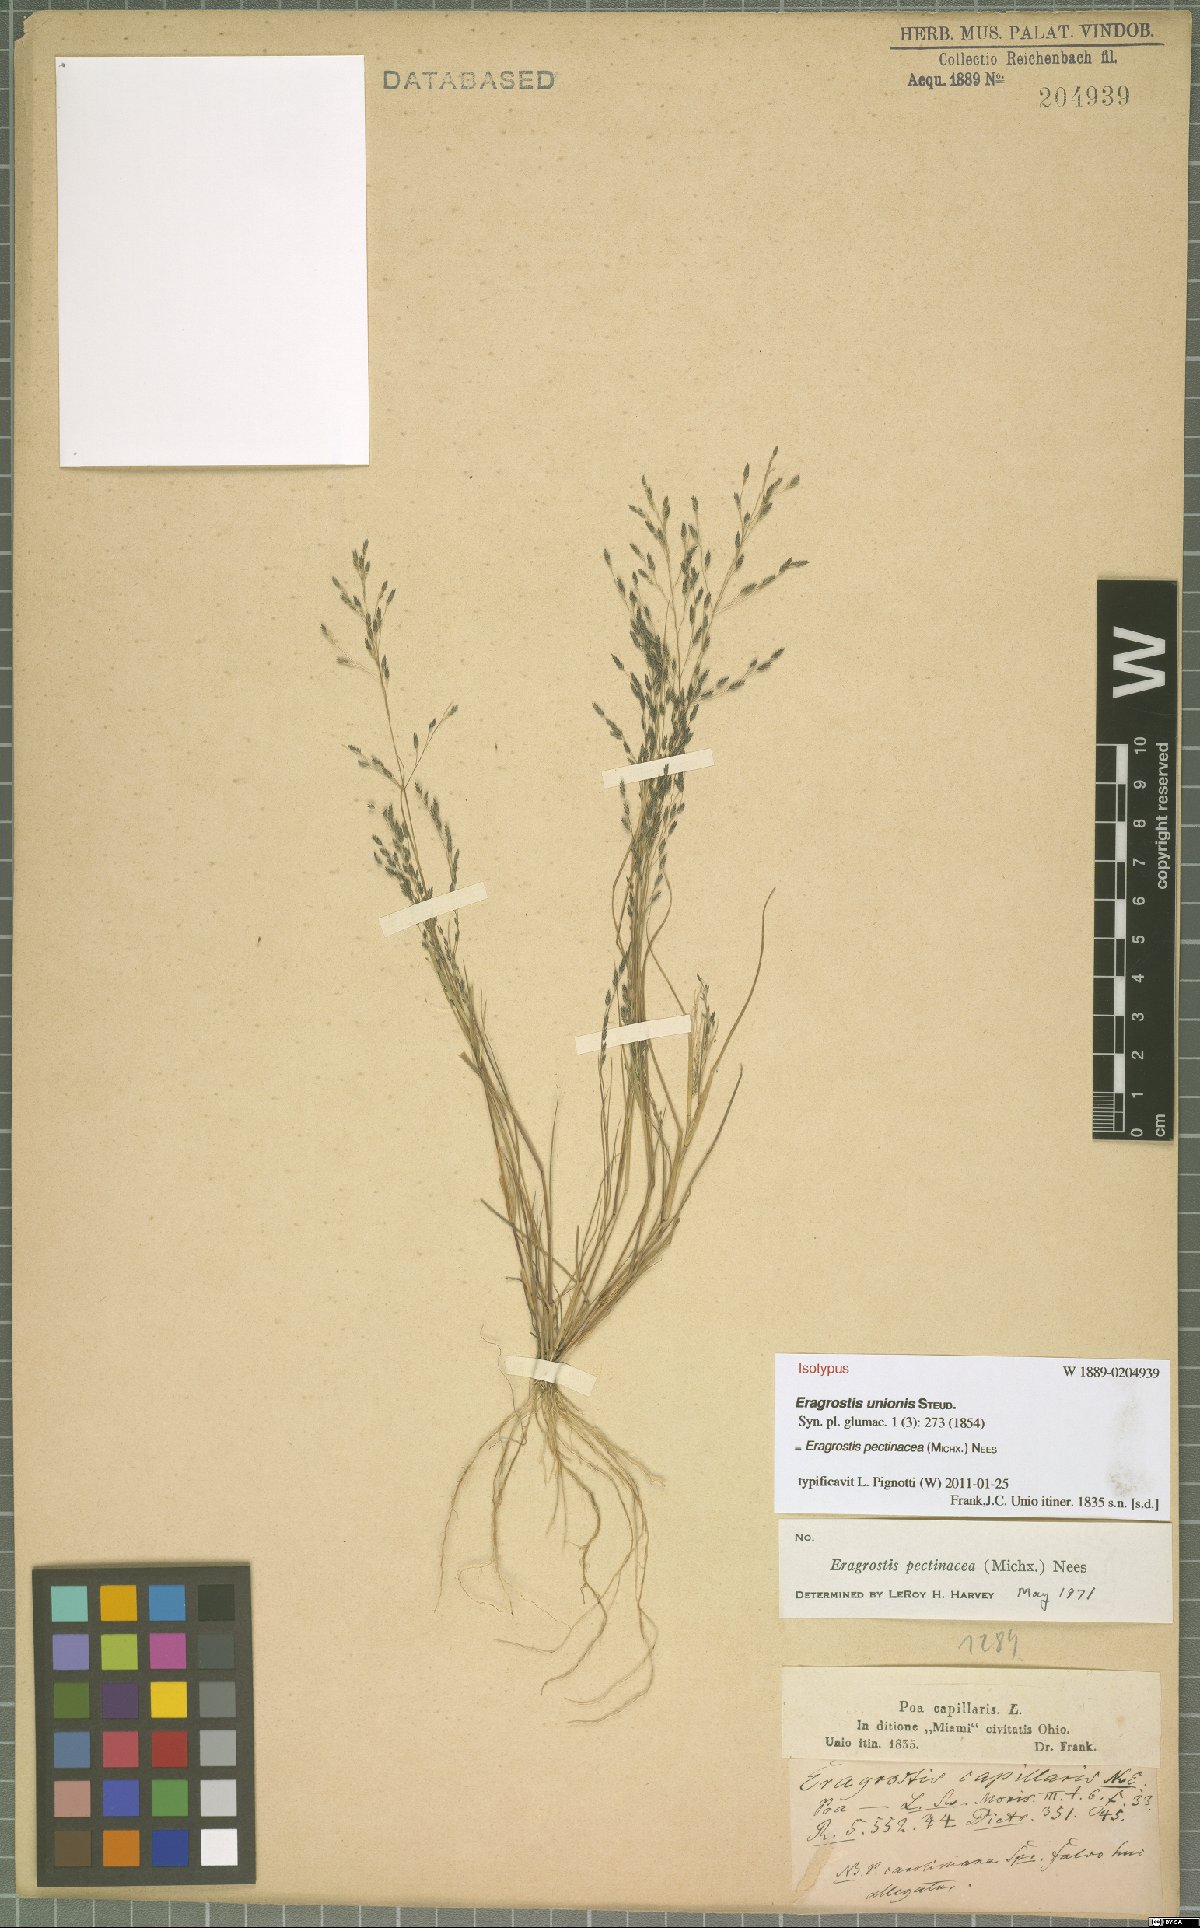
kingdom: Plantae
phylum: Tracheophyta
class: Liliopsida
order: Poales
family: Poaceae
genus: Eragrostis
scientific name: Eragrostis pectinacea
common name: Tufted lovegrass
